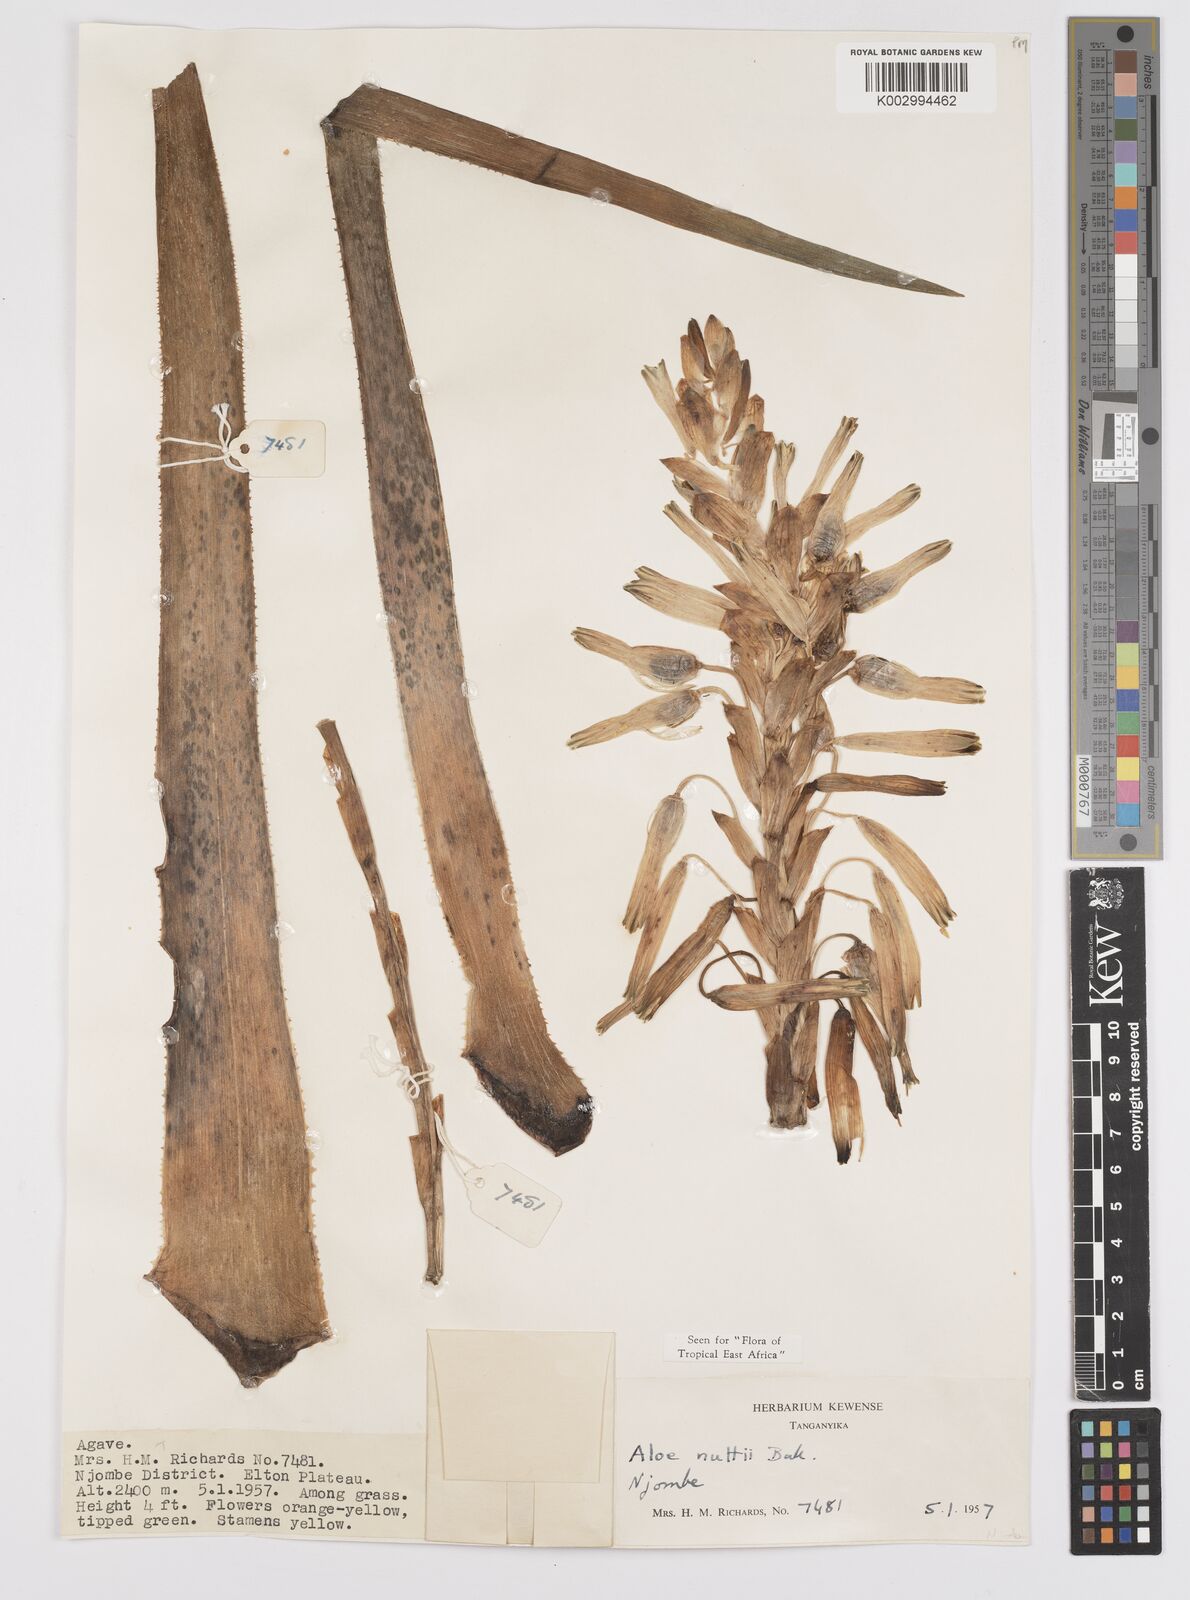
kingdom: Plantae
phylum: Tracheophyta
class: Liliopsida
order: Asparagales
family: Asphodelaceae
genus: Aloe
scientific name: Aloe nuttii
